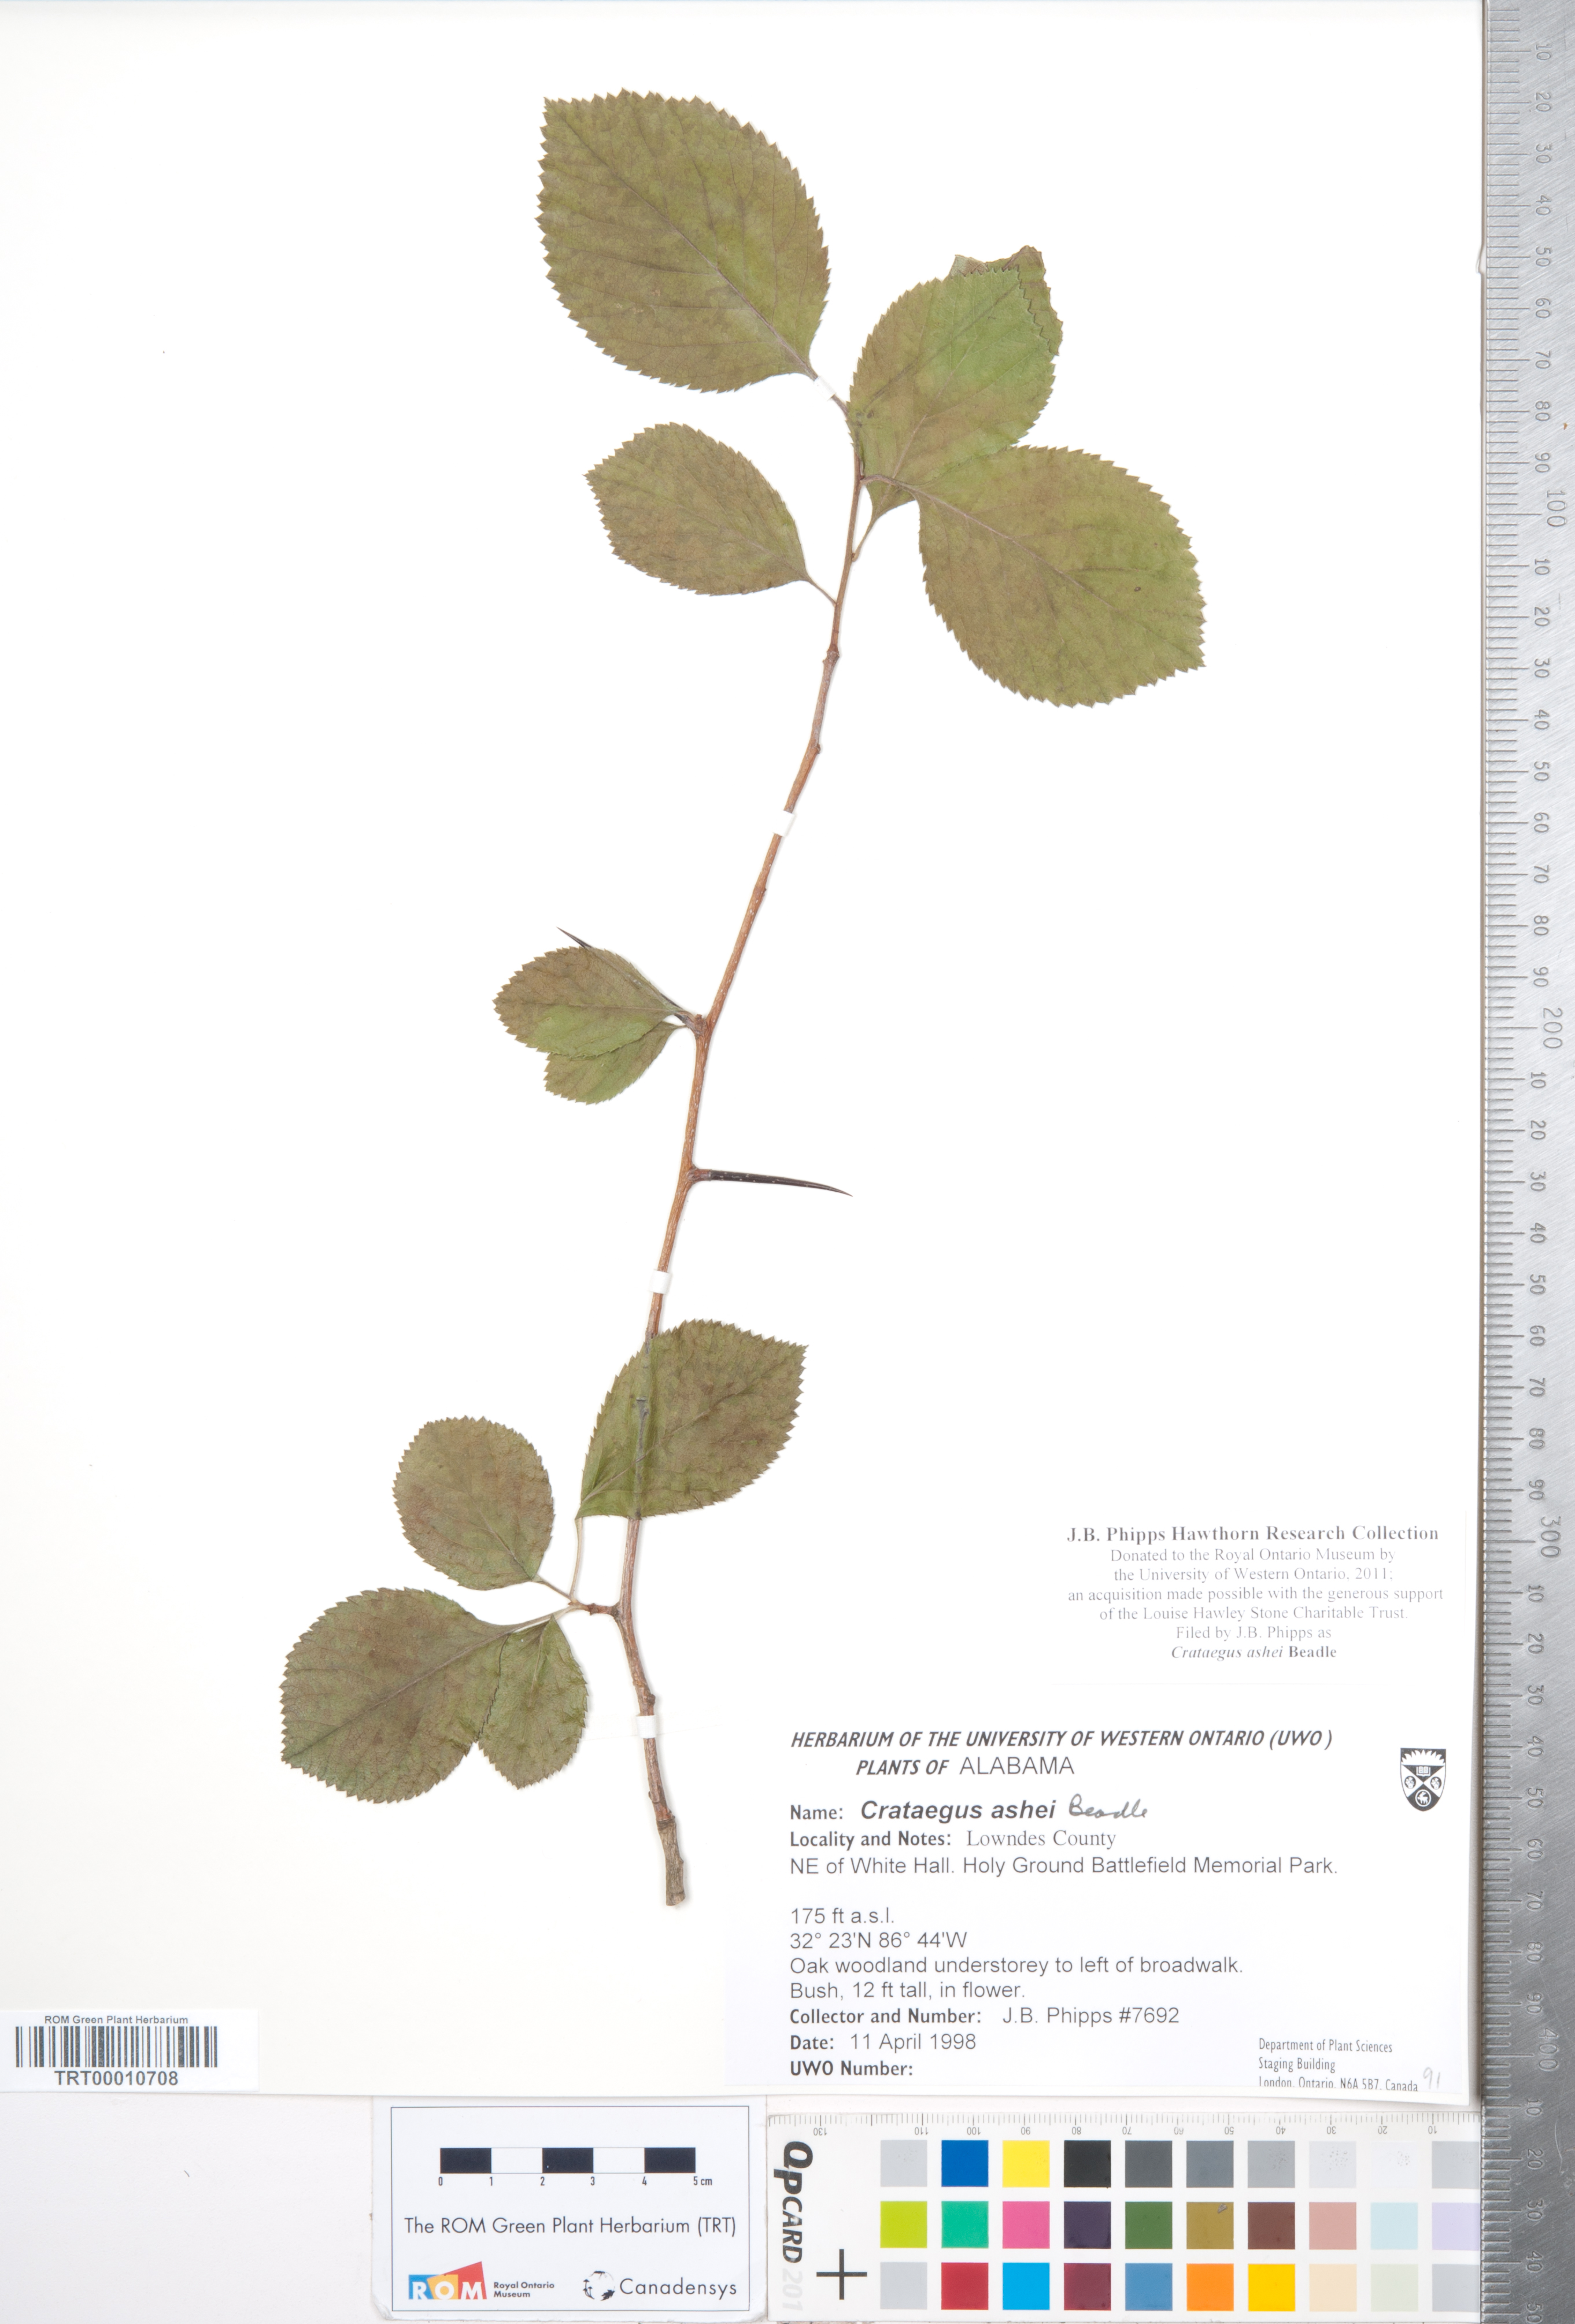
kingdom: Plantae
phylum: Tracheophyta
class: Magnoliopsida
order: Rosales
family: Rosaceae
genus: Crataegus
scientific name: Crataegus ashei
